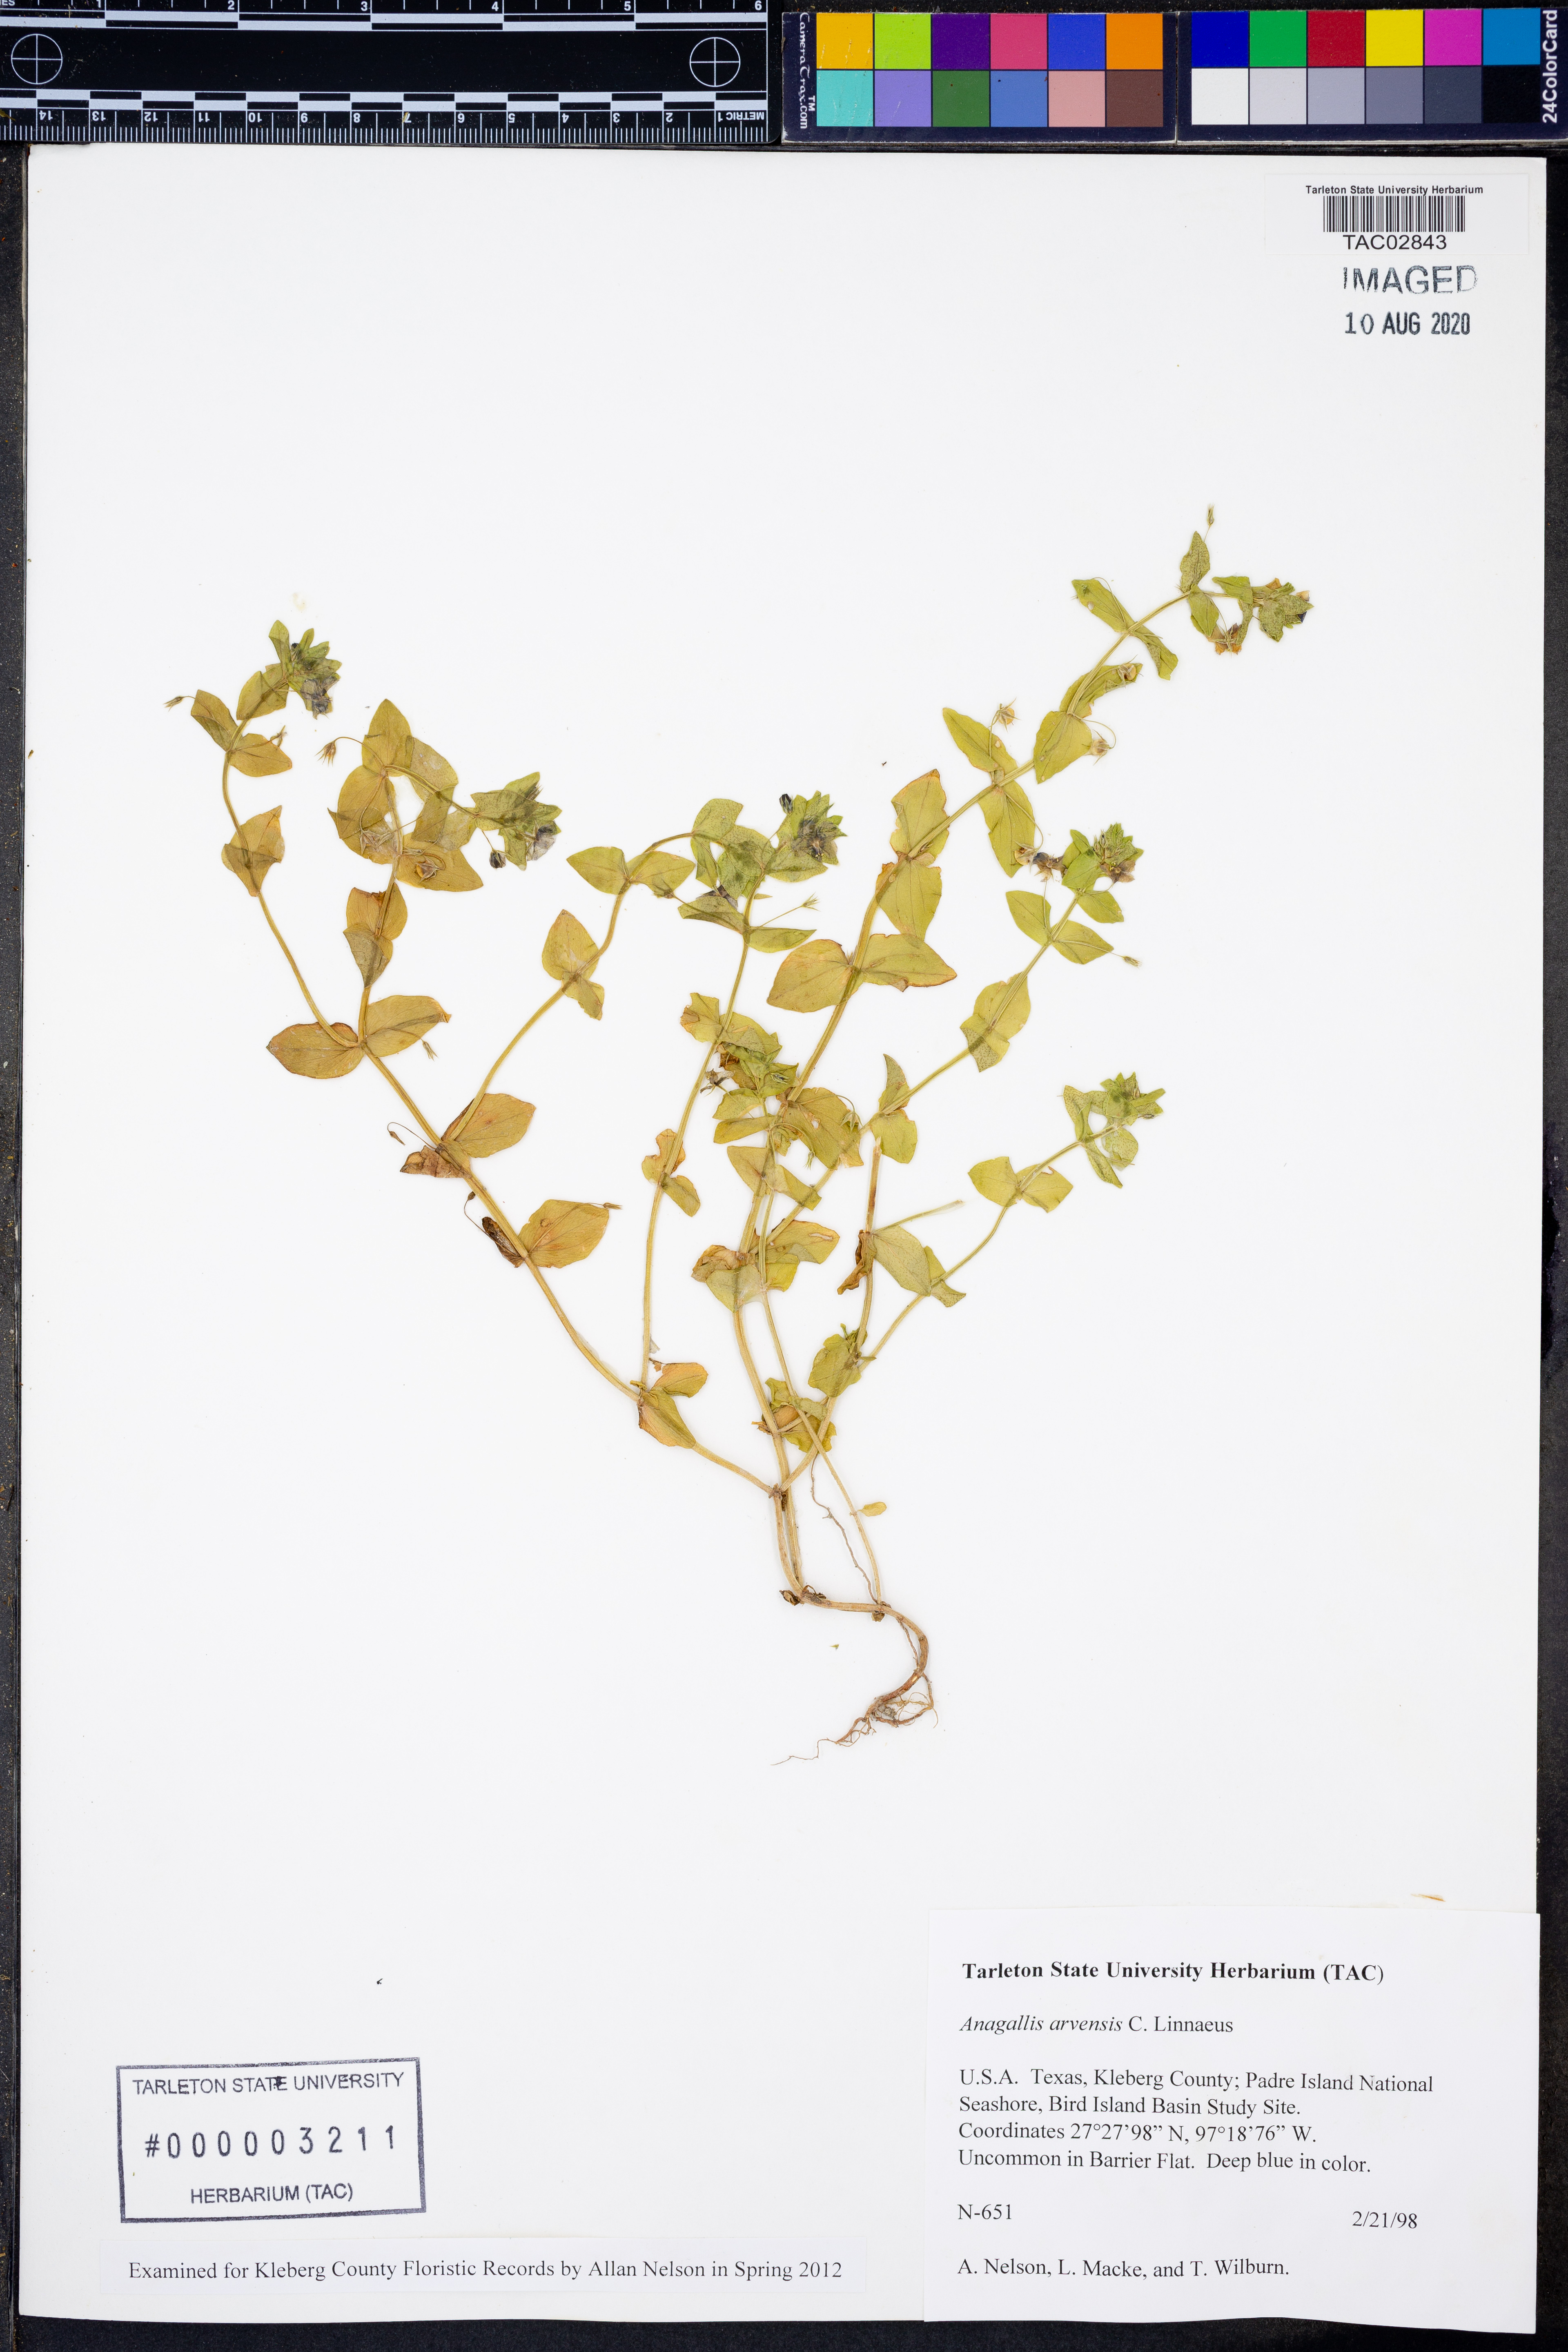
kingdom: Plantae
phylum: Tracheophyta
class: Magnoliopsida
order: Ericales
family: Primulaceae
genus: Lysimachia
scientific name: Lysimachia arvensis
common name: Scarlet pimpernel
